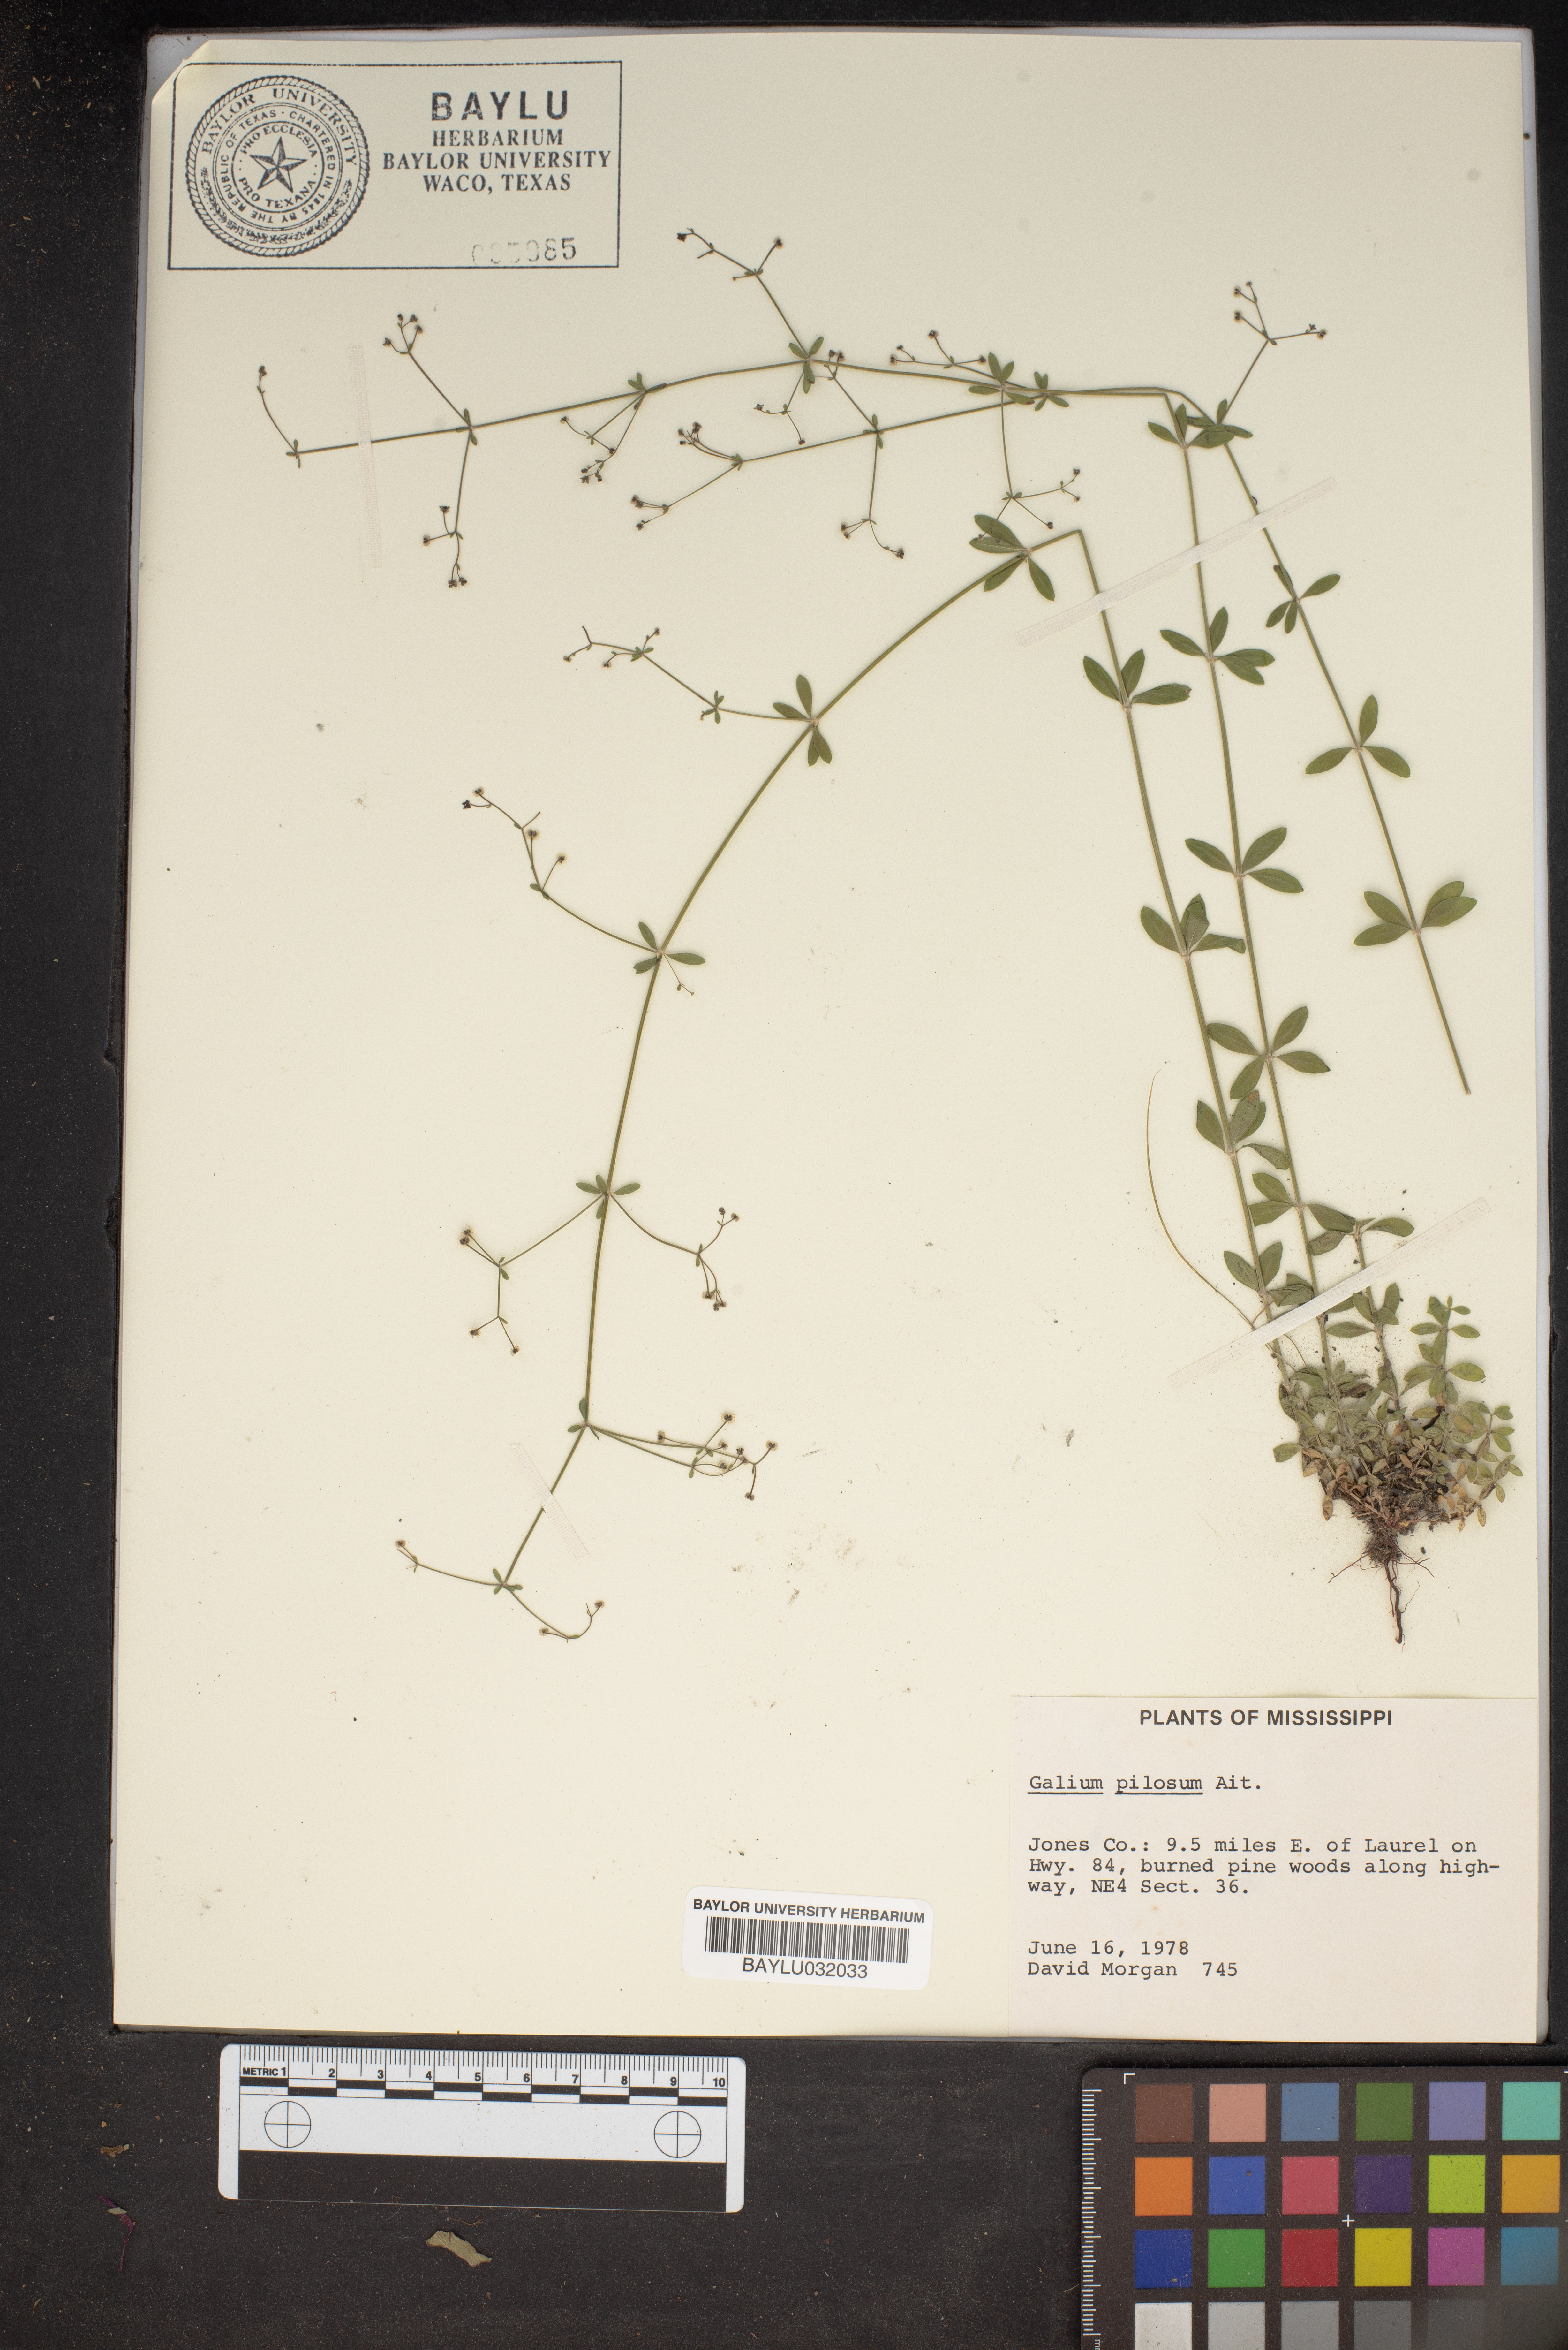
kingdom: Plantae
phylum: Tracheophyta
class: Magnoliopsida
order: Gentianales
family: Rubiaceae
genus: Galium
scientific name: Galium pilosum
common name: Hairy bedstraw
